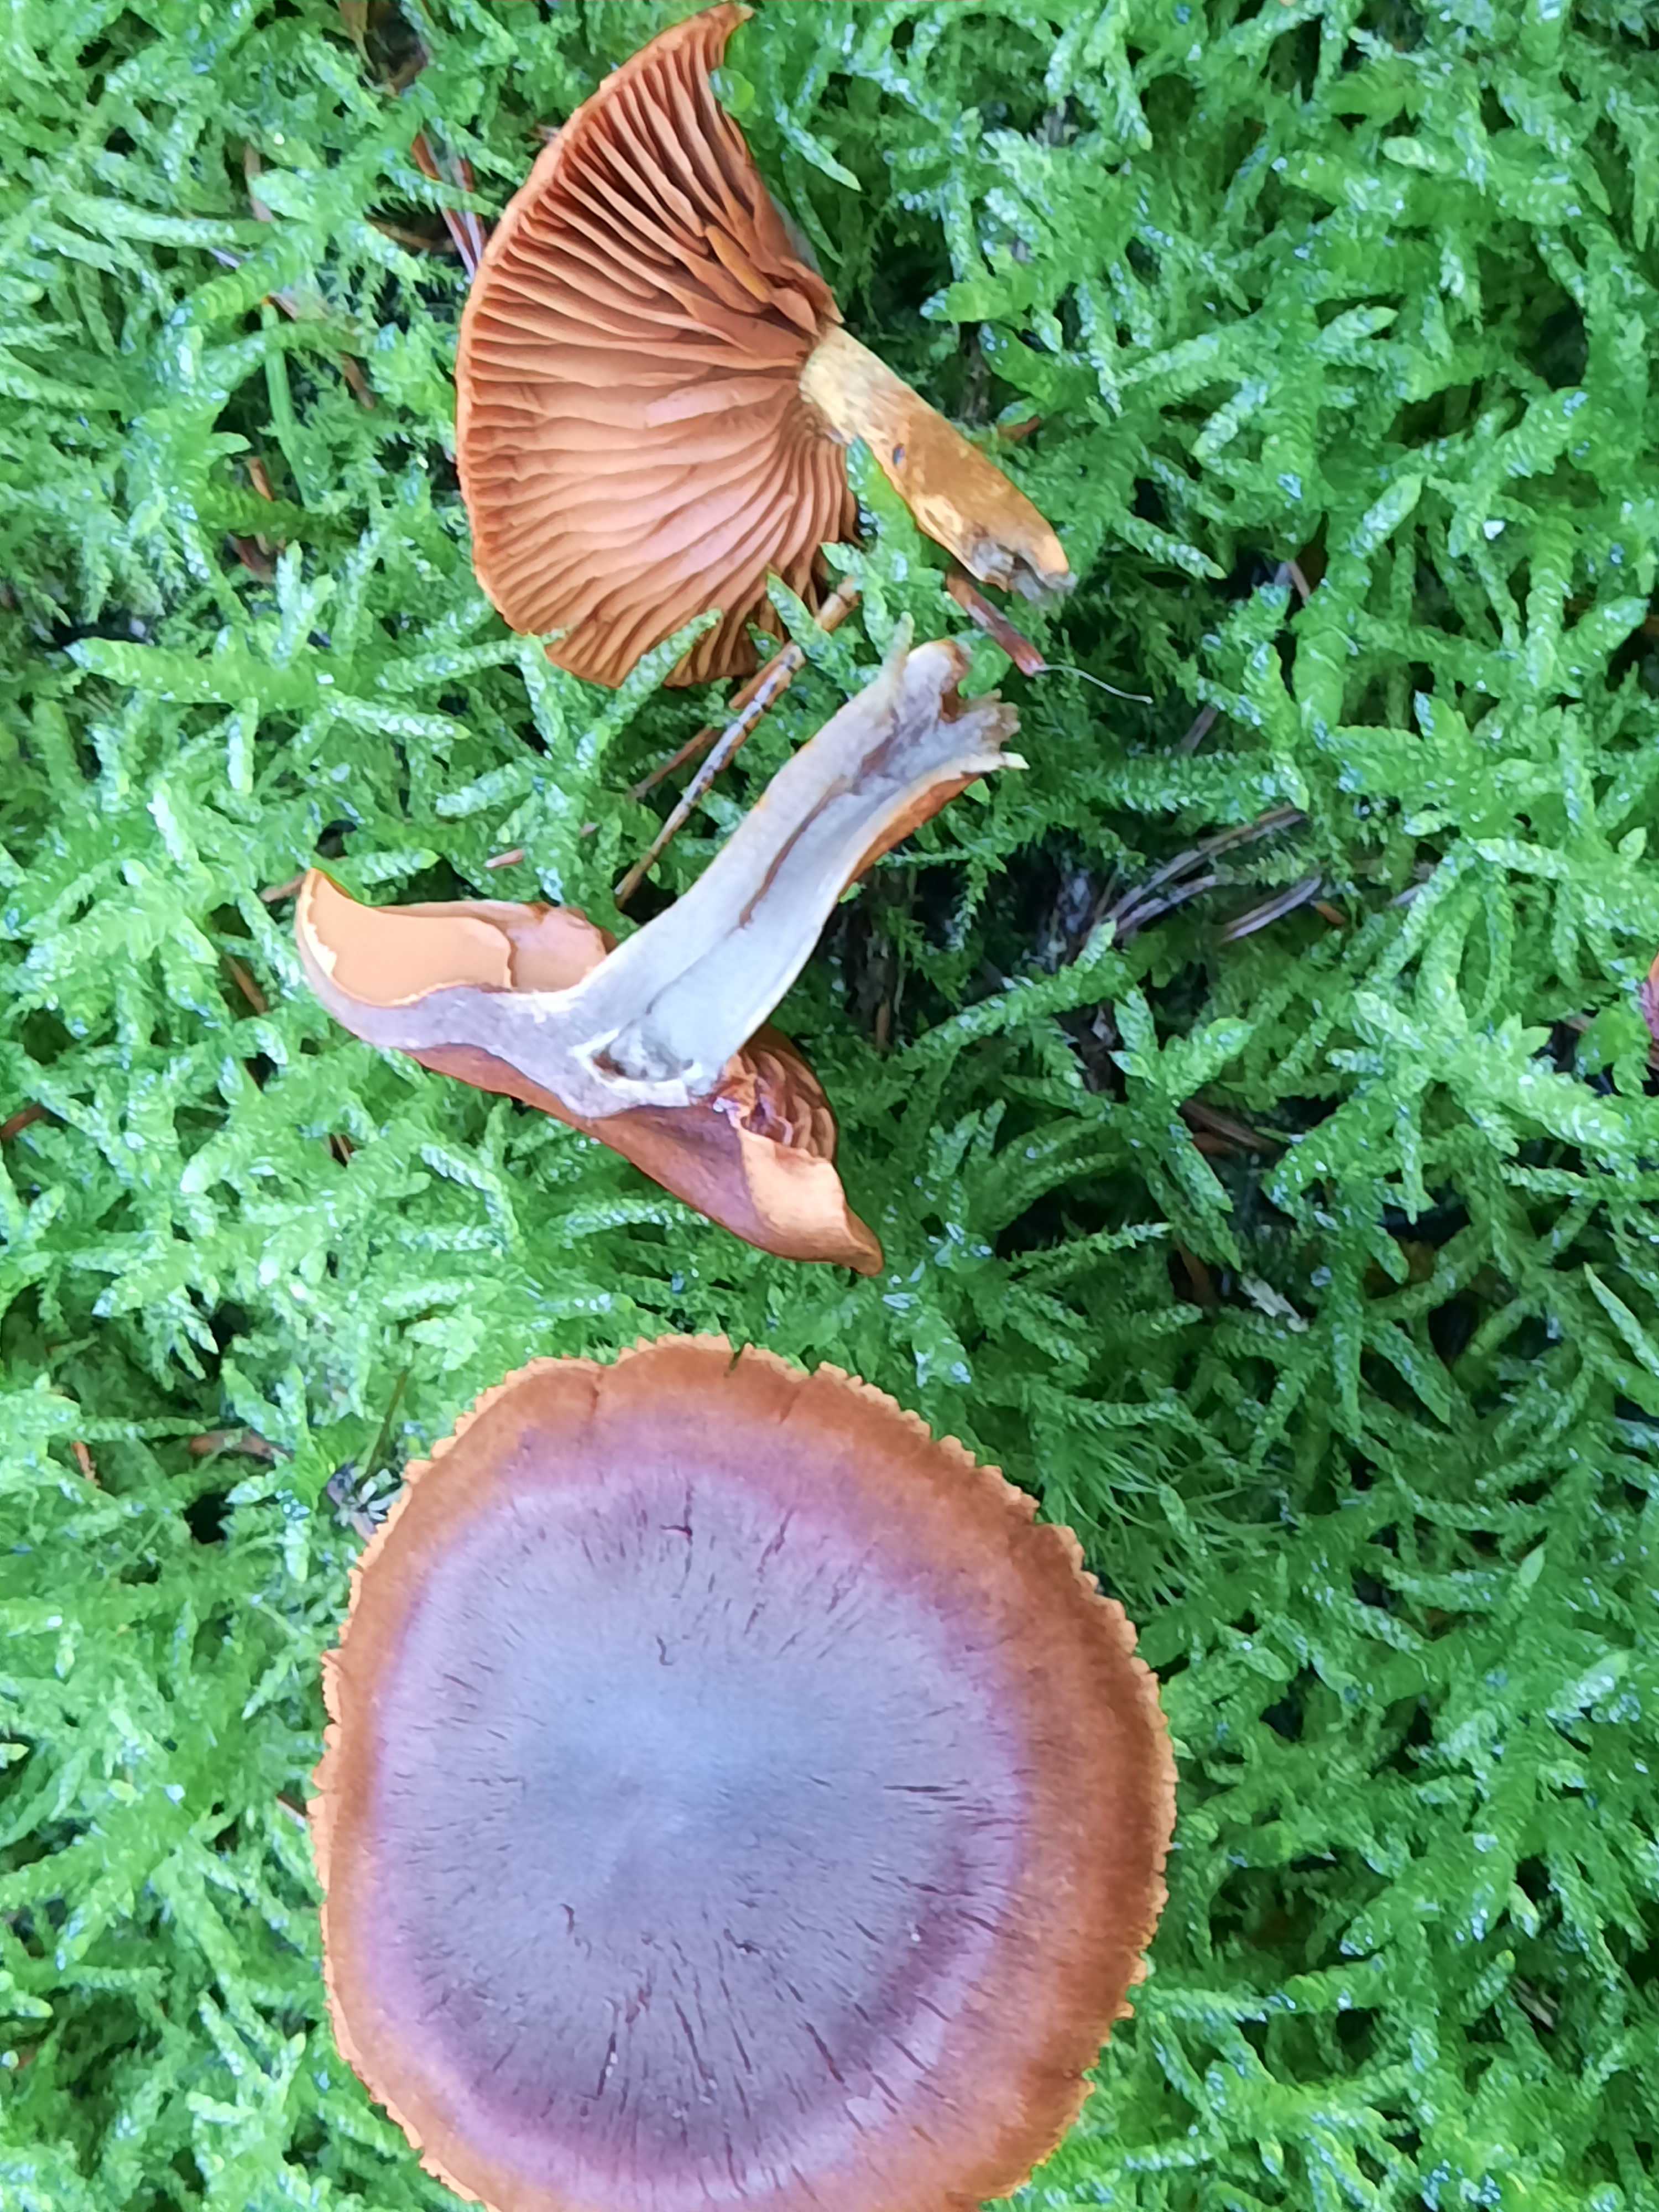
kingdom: Fungi
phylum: Basidiomycota
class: Agaricomycetes
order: Agaricales
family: Cortinariaceae
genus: Cortinarius
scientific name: Cortinarius malicorius
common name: grønkødet slørhat
